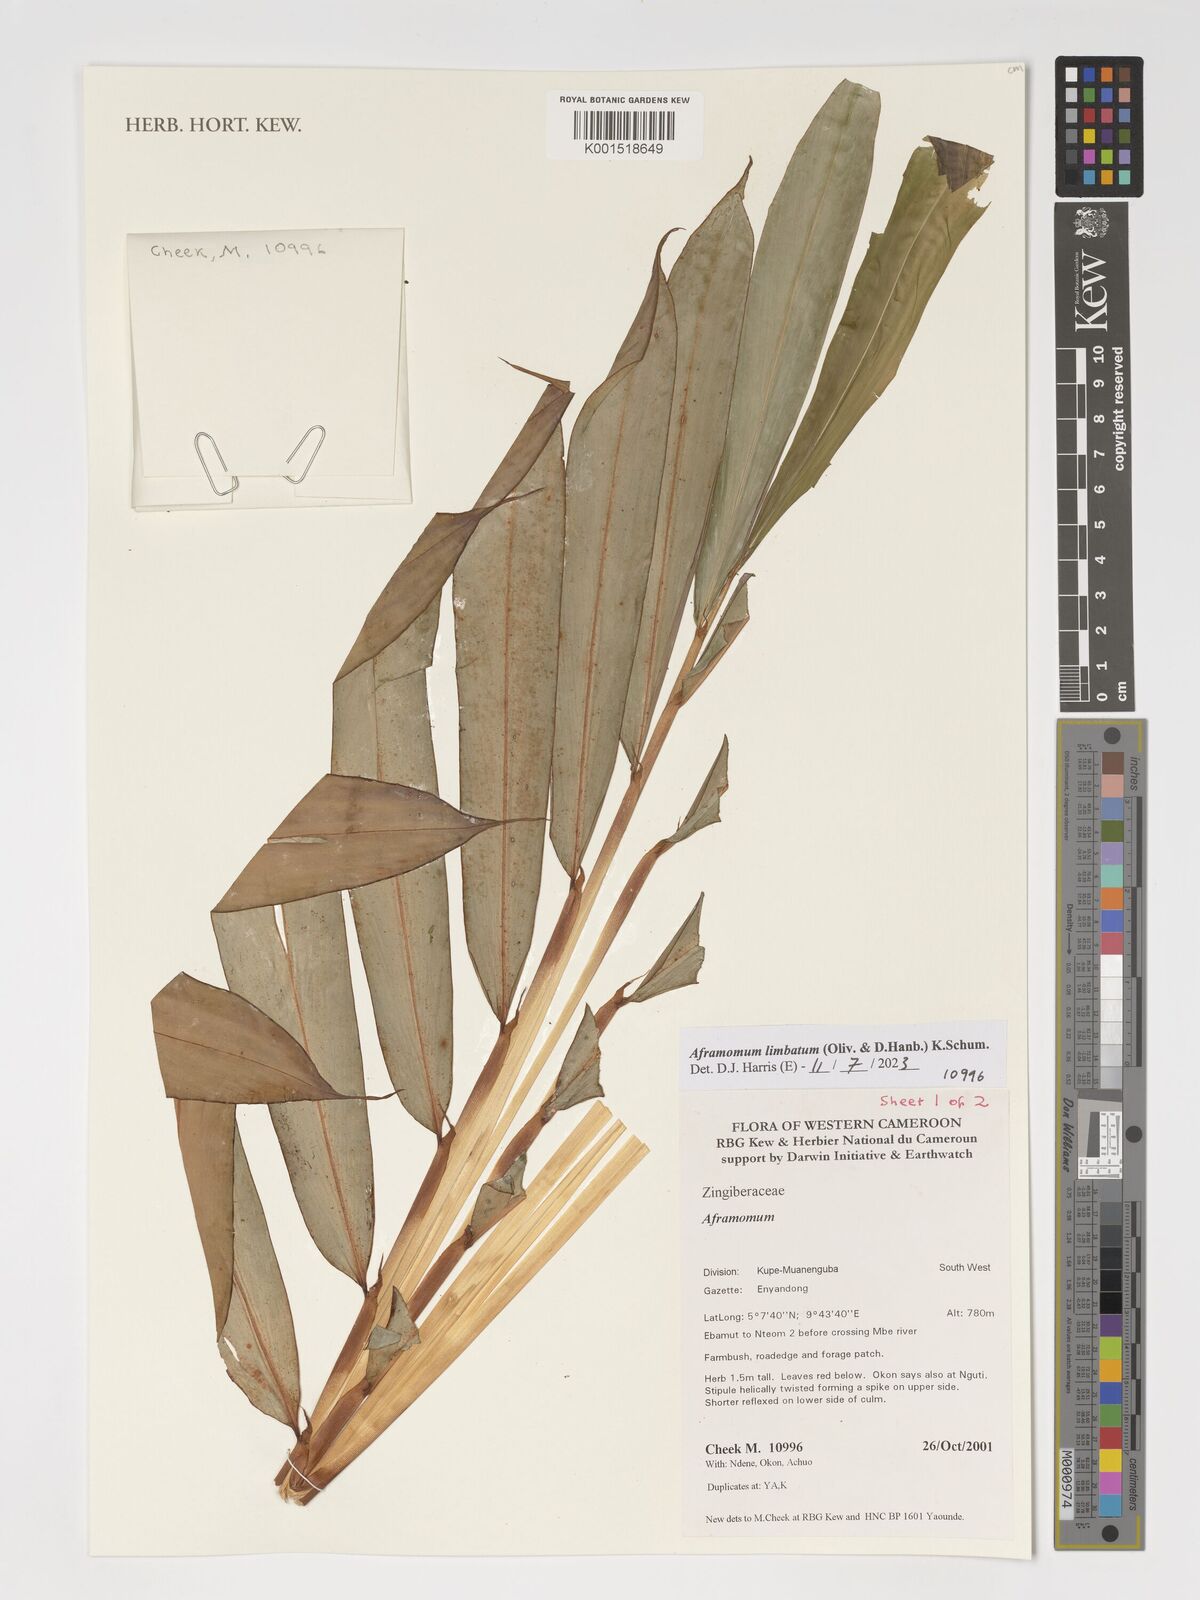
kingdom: Plantae
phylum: Tracheophyta
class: Liliopsida
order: Zingiberales
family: Zingiberaceae
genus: Aframomum
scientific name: Aframomum limbatum
